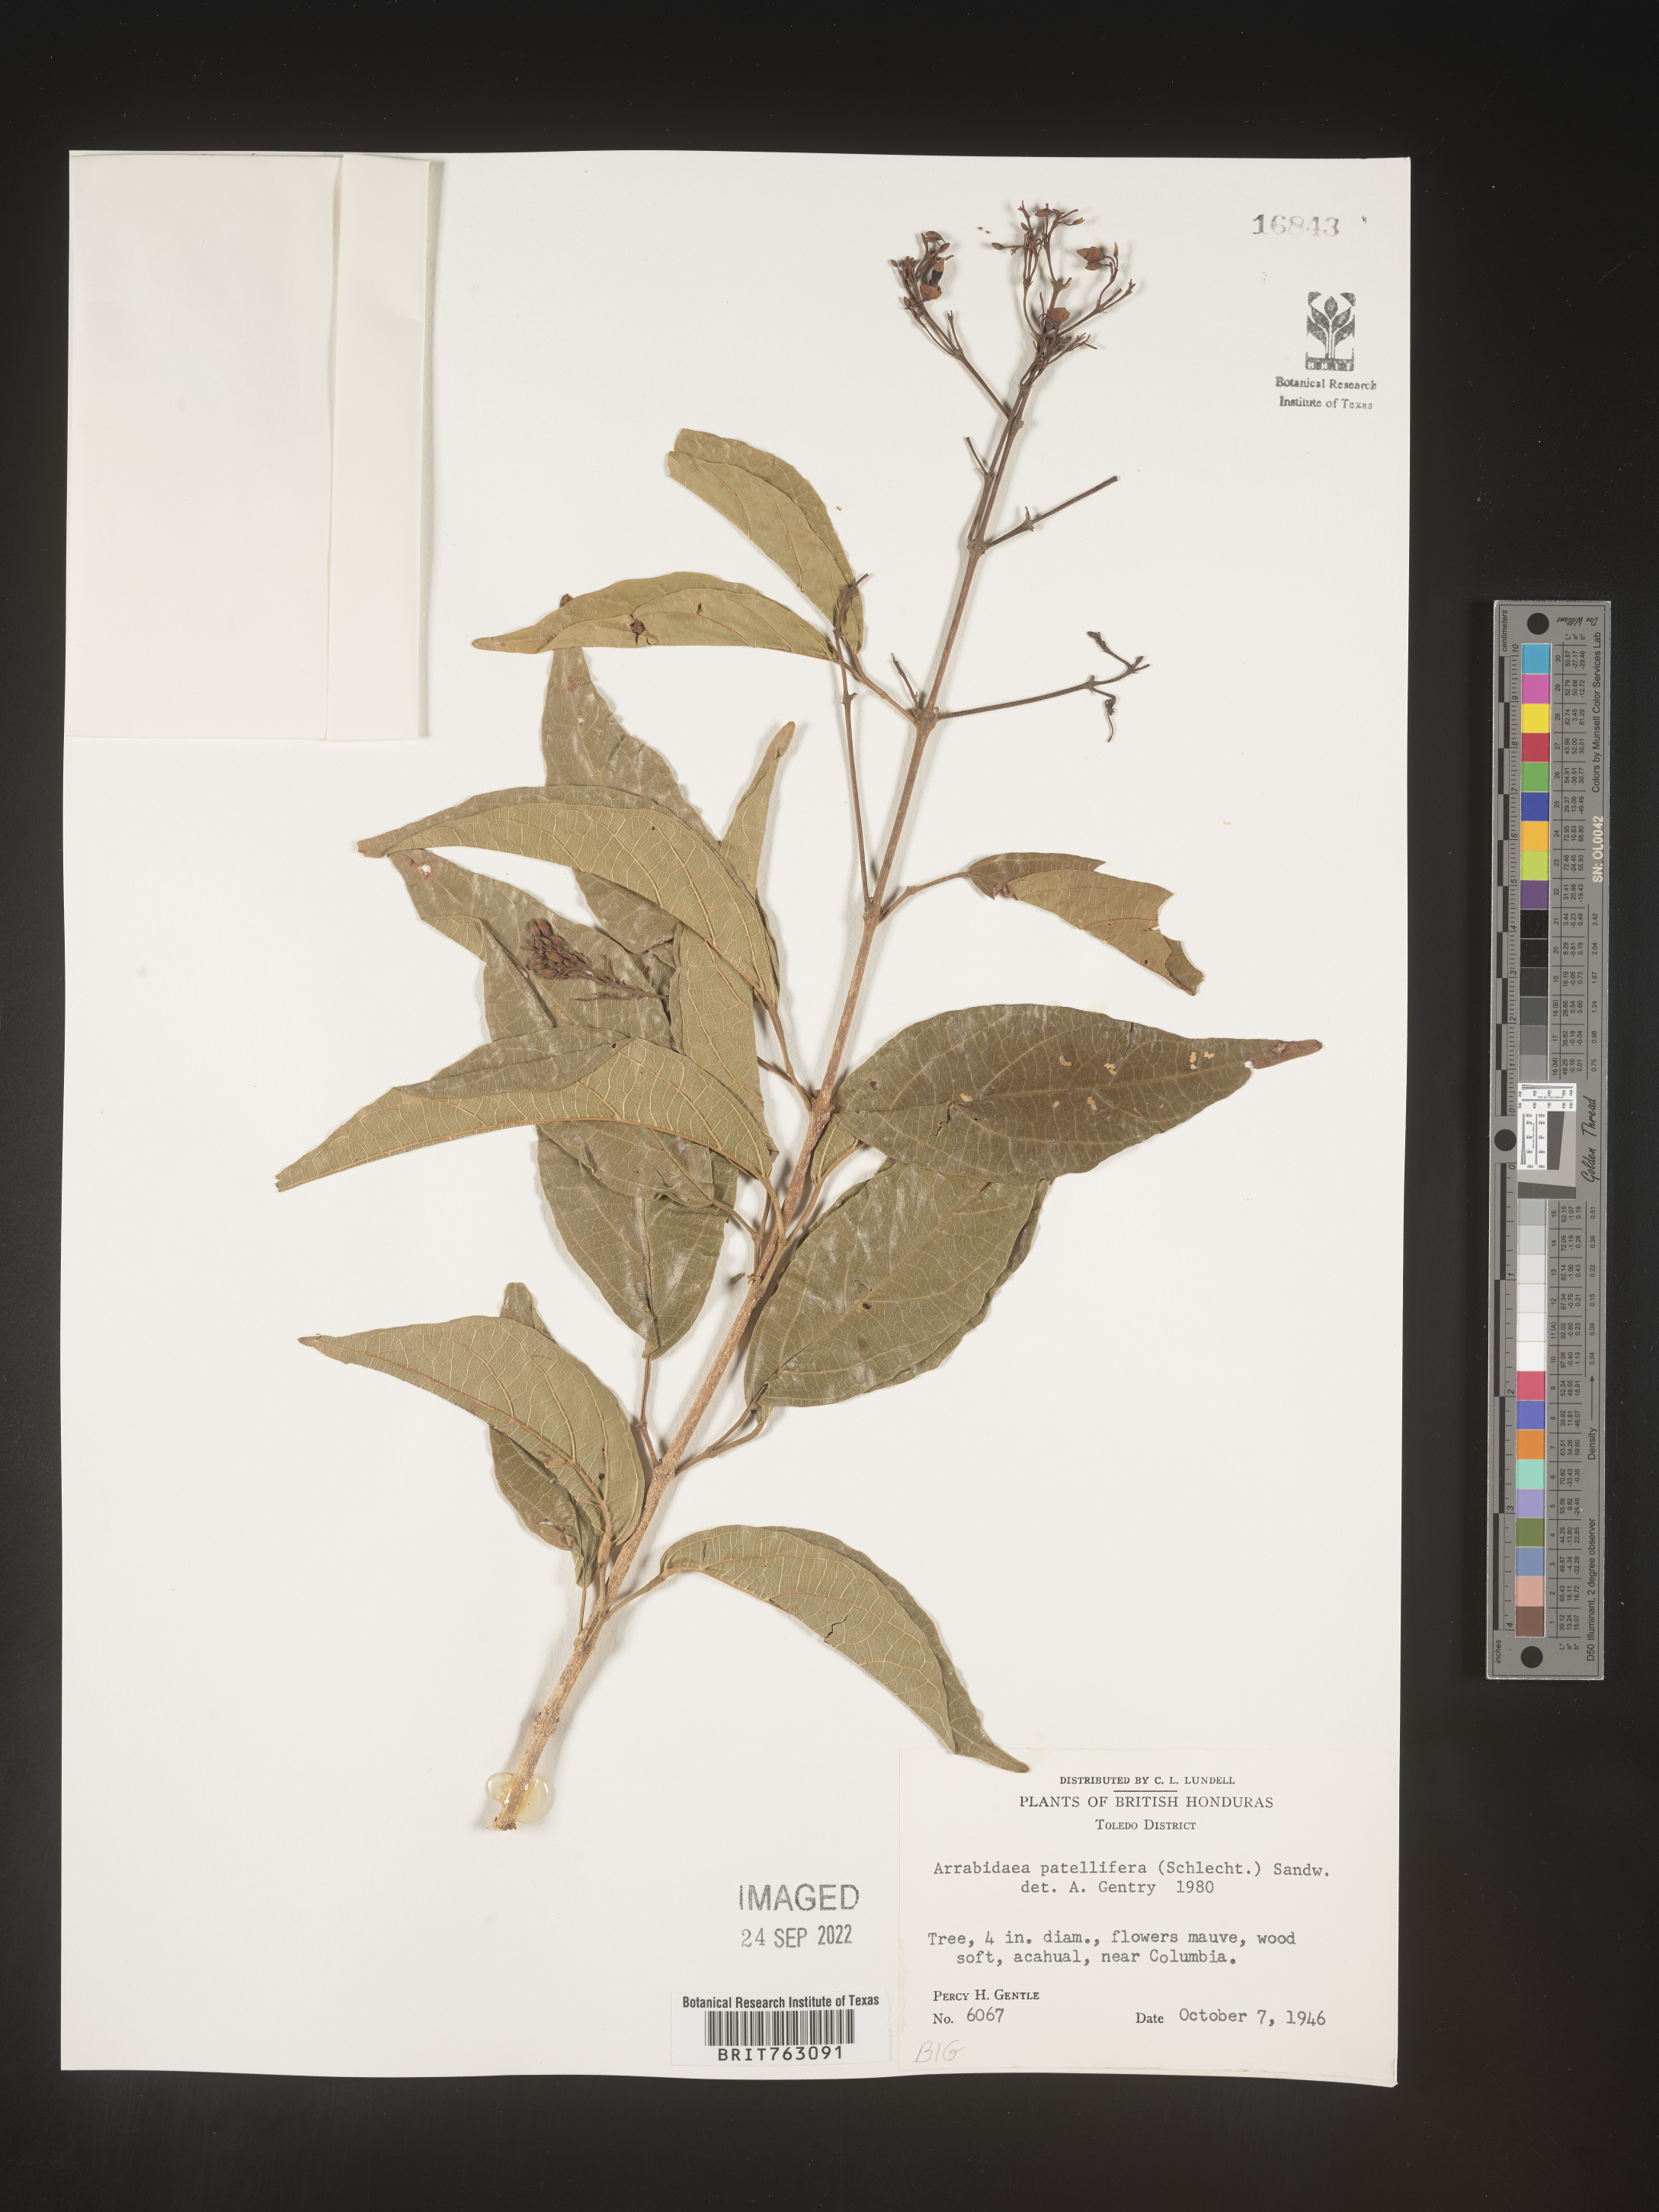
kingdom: Plantae
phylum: Tracheophyta
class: Magnoliopsida
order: Rosales
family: Rhamnaceae
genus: Arrabidaea
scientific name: Arrabidaea
